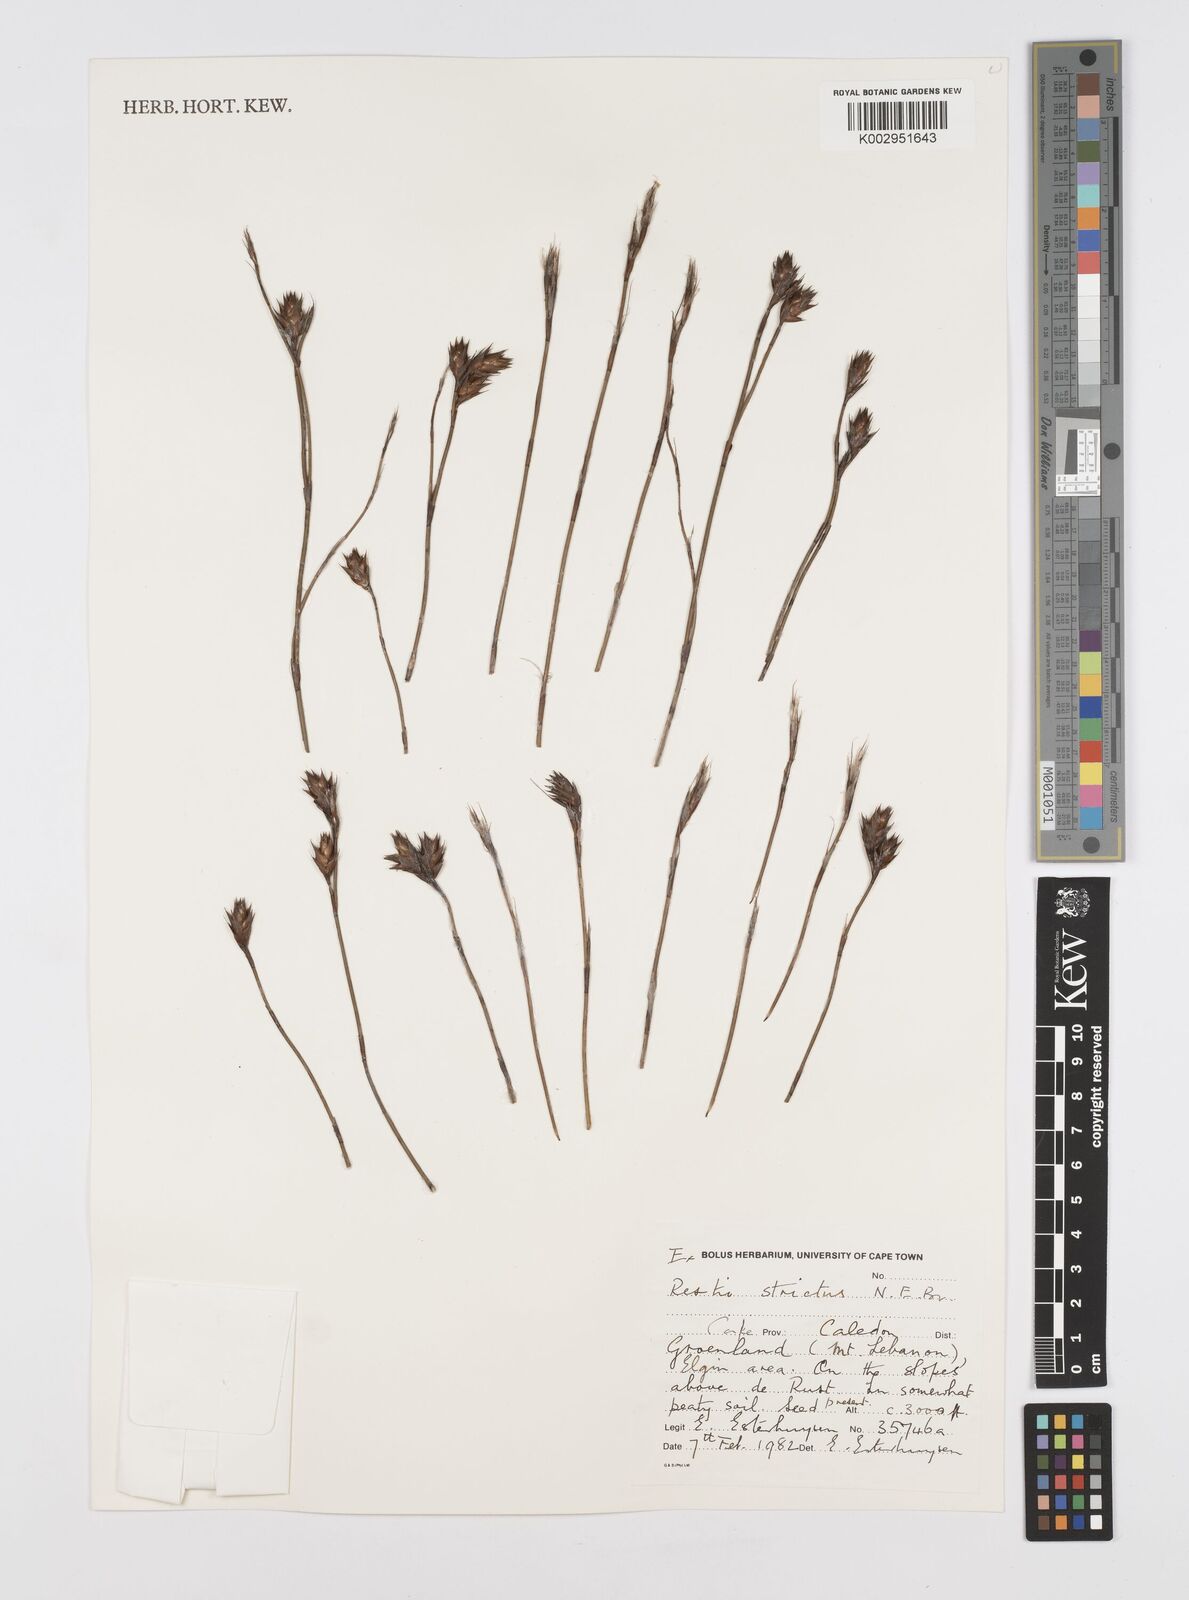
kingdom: Plantae
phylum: Tracheophyta
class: Liliopsida
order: Poales
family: Restionaceae
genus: Restio
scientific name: Restio strictus
